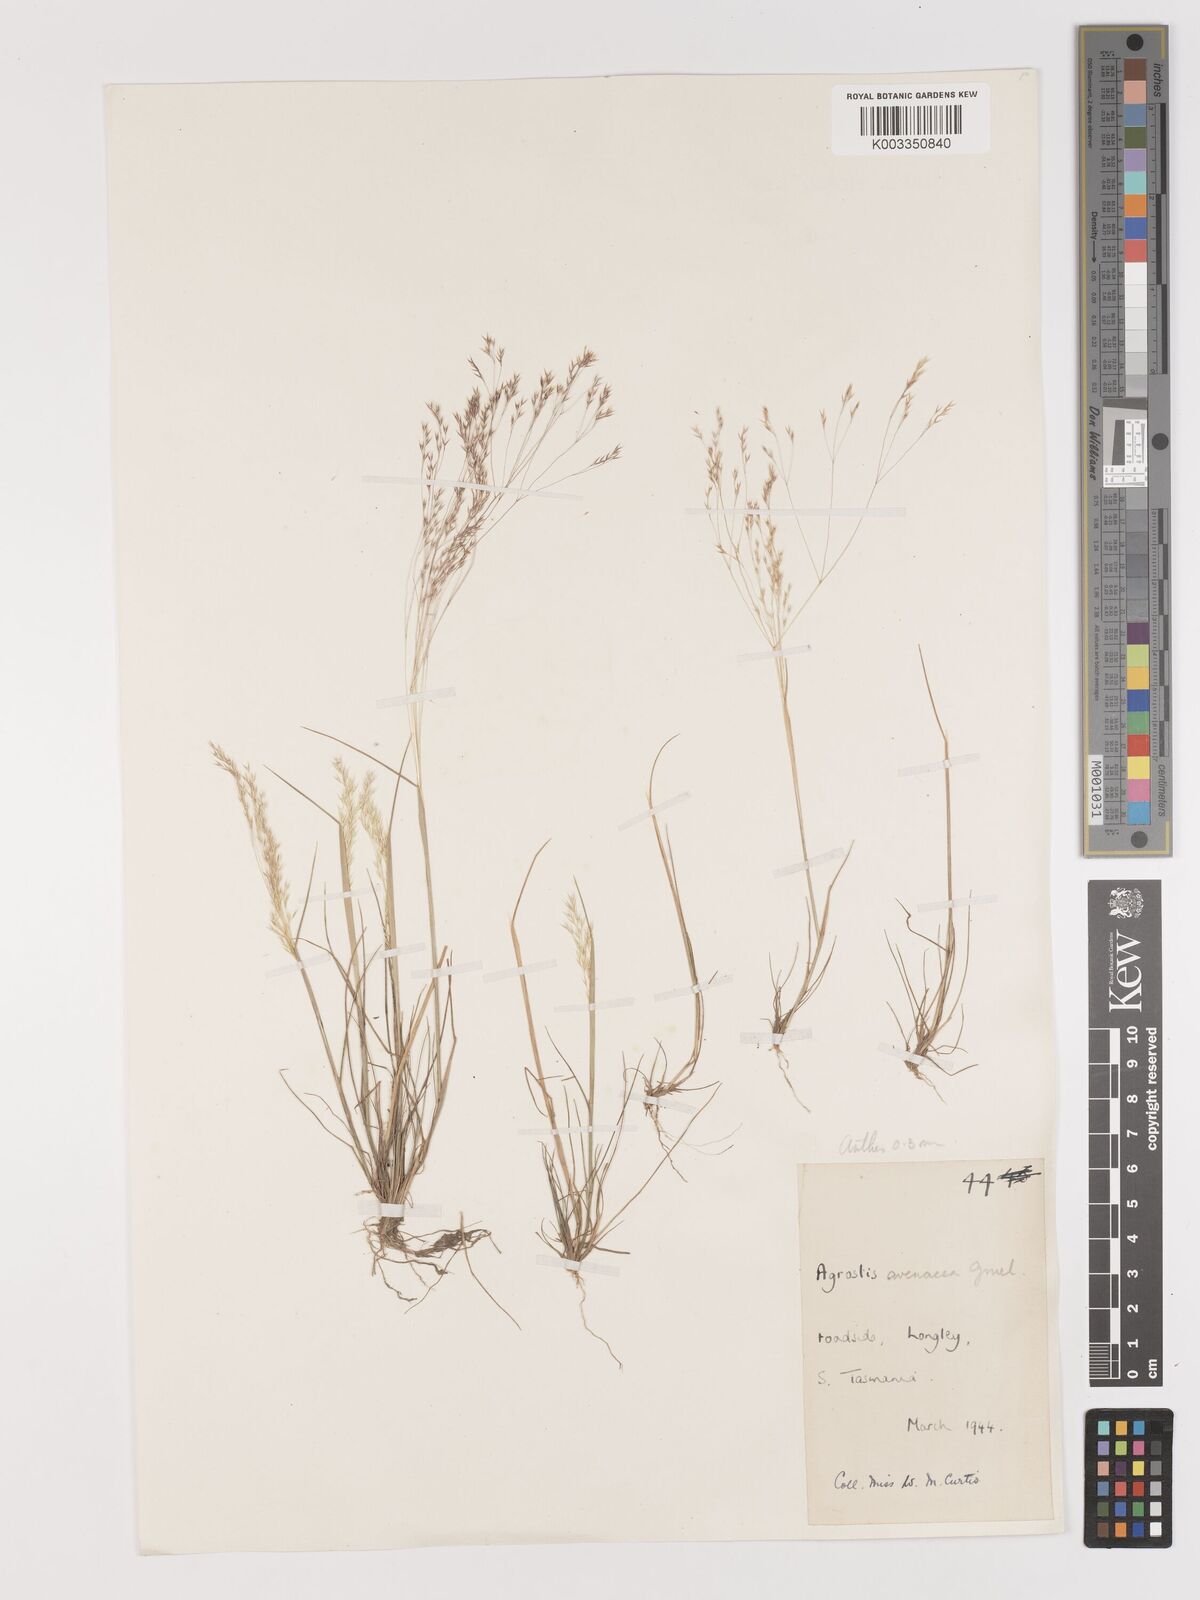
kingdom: Plantae
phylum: Tracheophyta
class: Liliopsida
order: Poales
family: Poaceae
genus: Lachnagrostis
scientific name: Lachnagrostis filiformis
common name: Bentgrass
